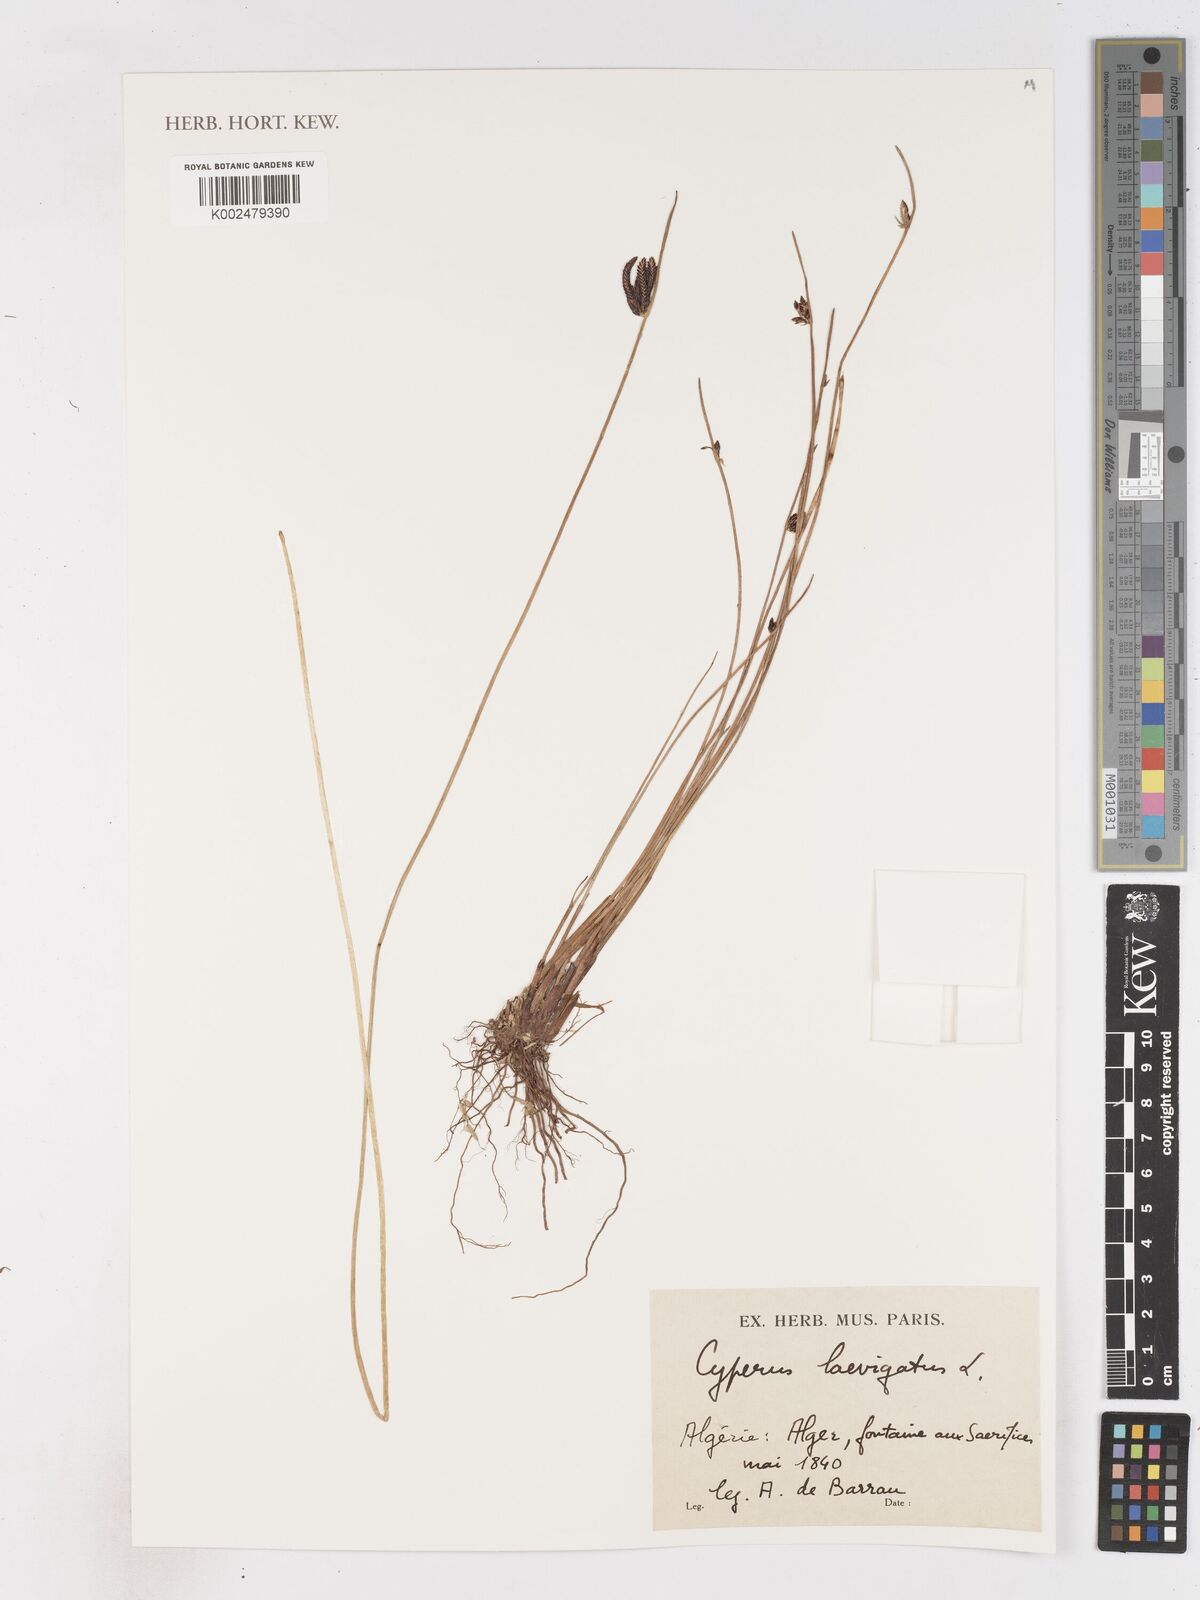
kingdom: Plantae
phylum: Tracheophyta
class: Liliopsida
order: Poales
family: Cyperaceae
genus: Cyperus
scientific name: Cyperus laevigatus
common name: Smooth flat sedge
